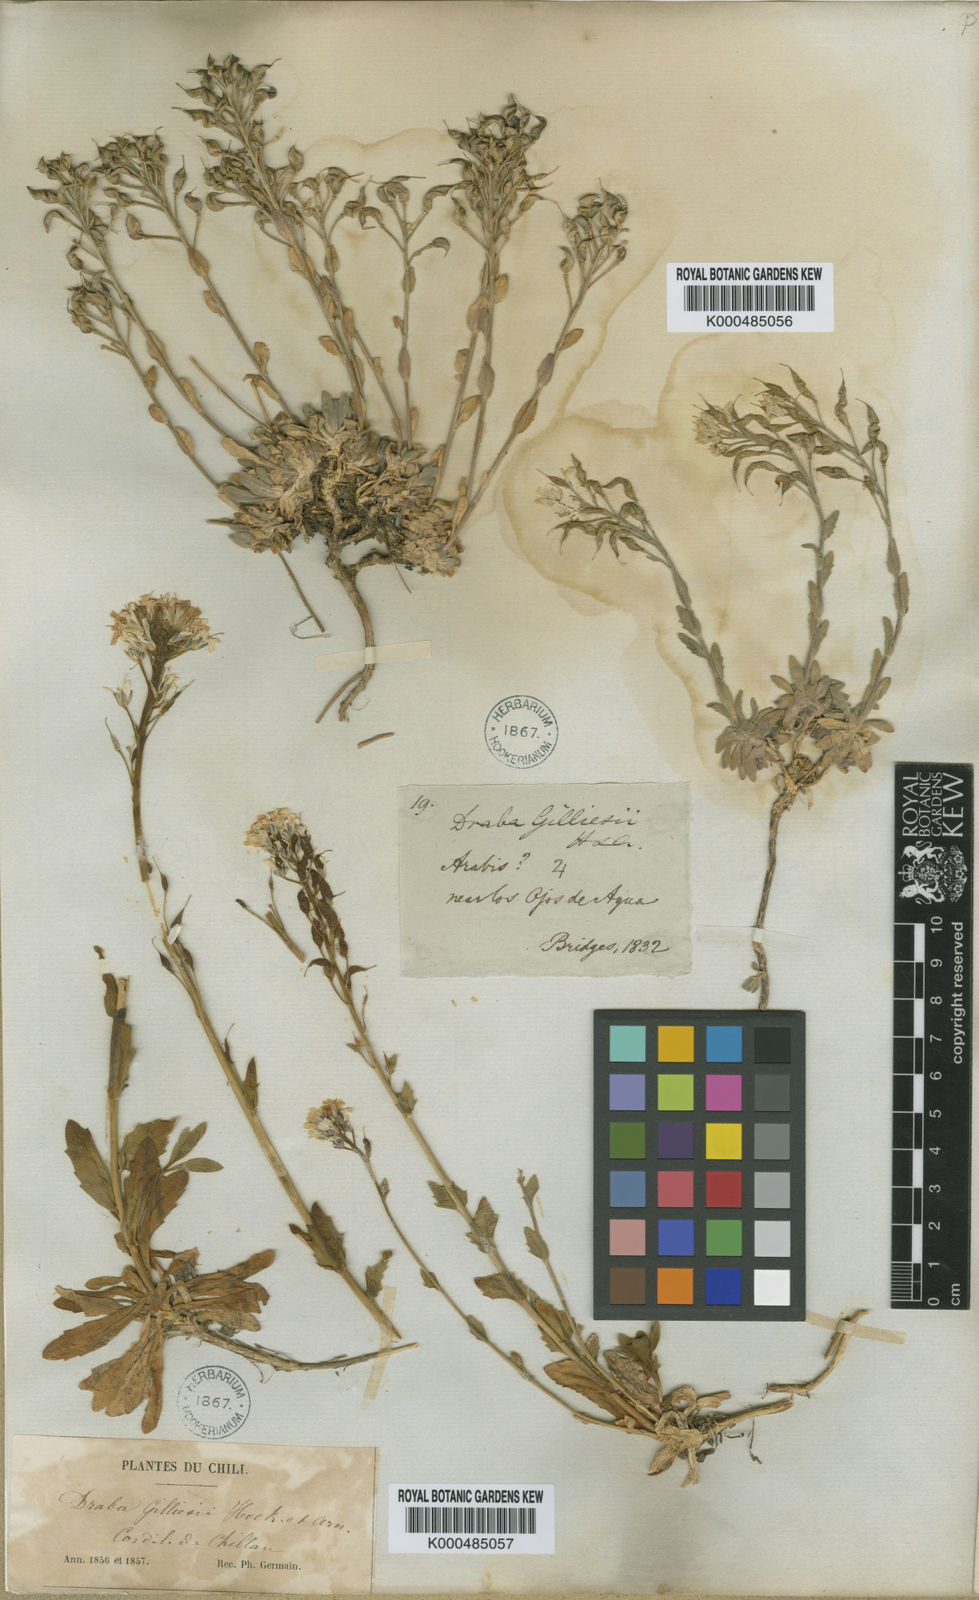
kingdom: Plantae
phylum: Tracheophyta
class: Magnoliopsida
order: Brassicales
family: Brassicaceae
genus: Draba
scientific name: Draba gilliesii
